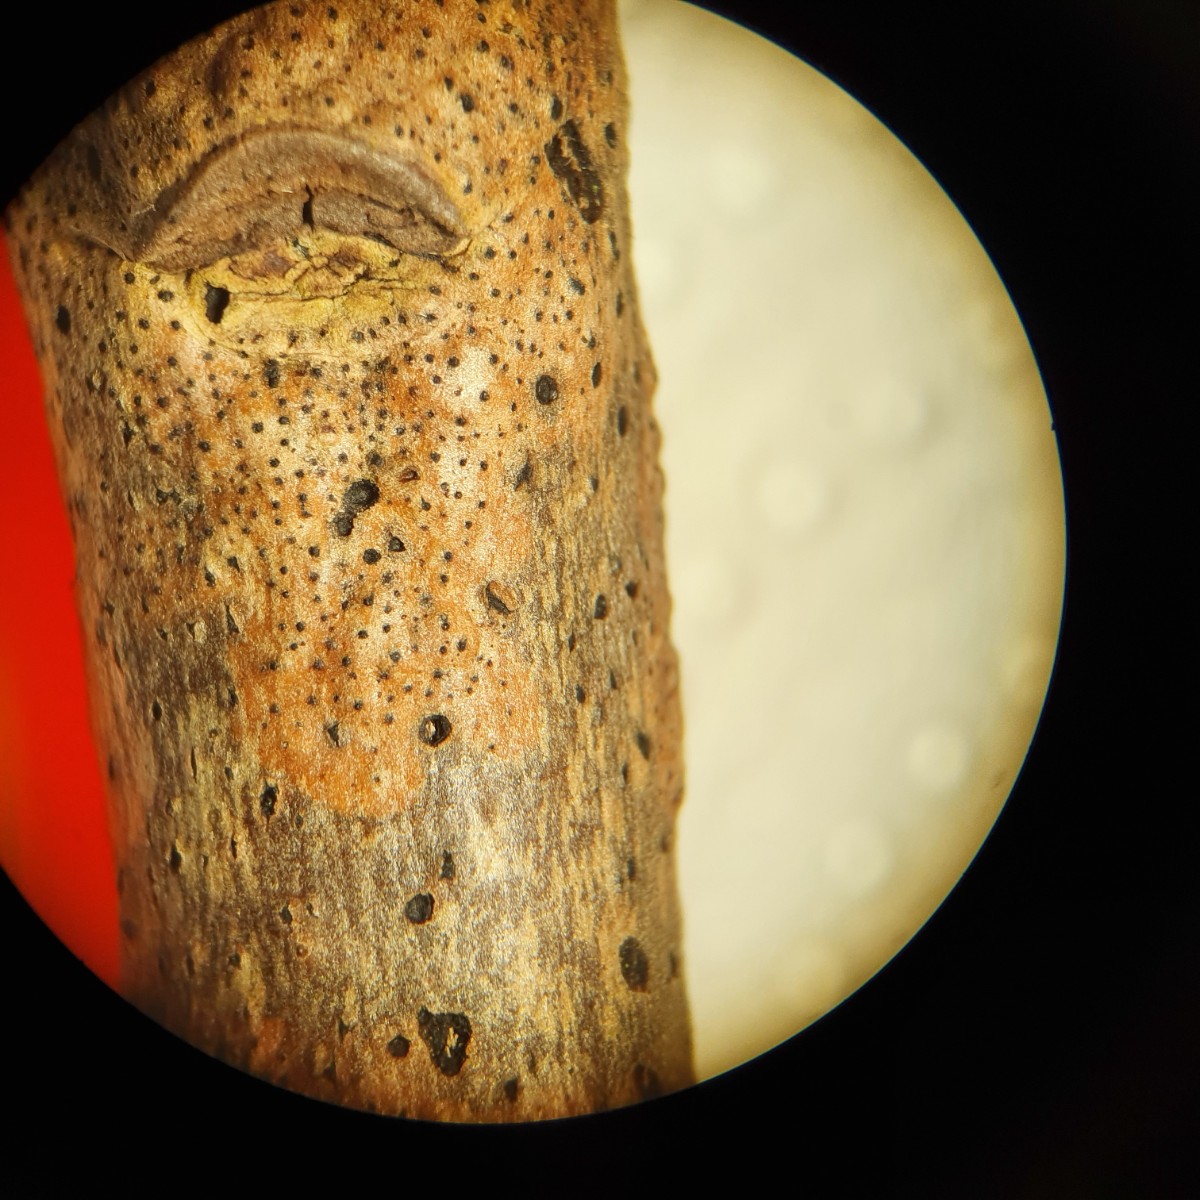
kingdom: Fungi
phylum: Ascomycota
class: Sordariomycetes
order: Xylariales
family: Diatrypaceae
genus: Cryptosphaeria
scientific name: Cryptosphaeria eunomia
